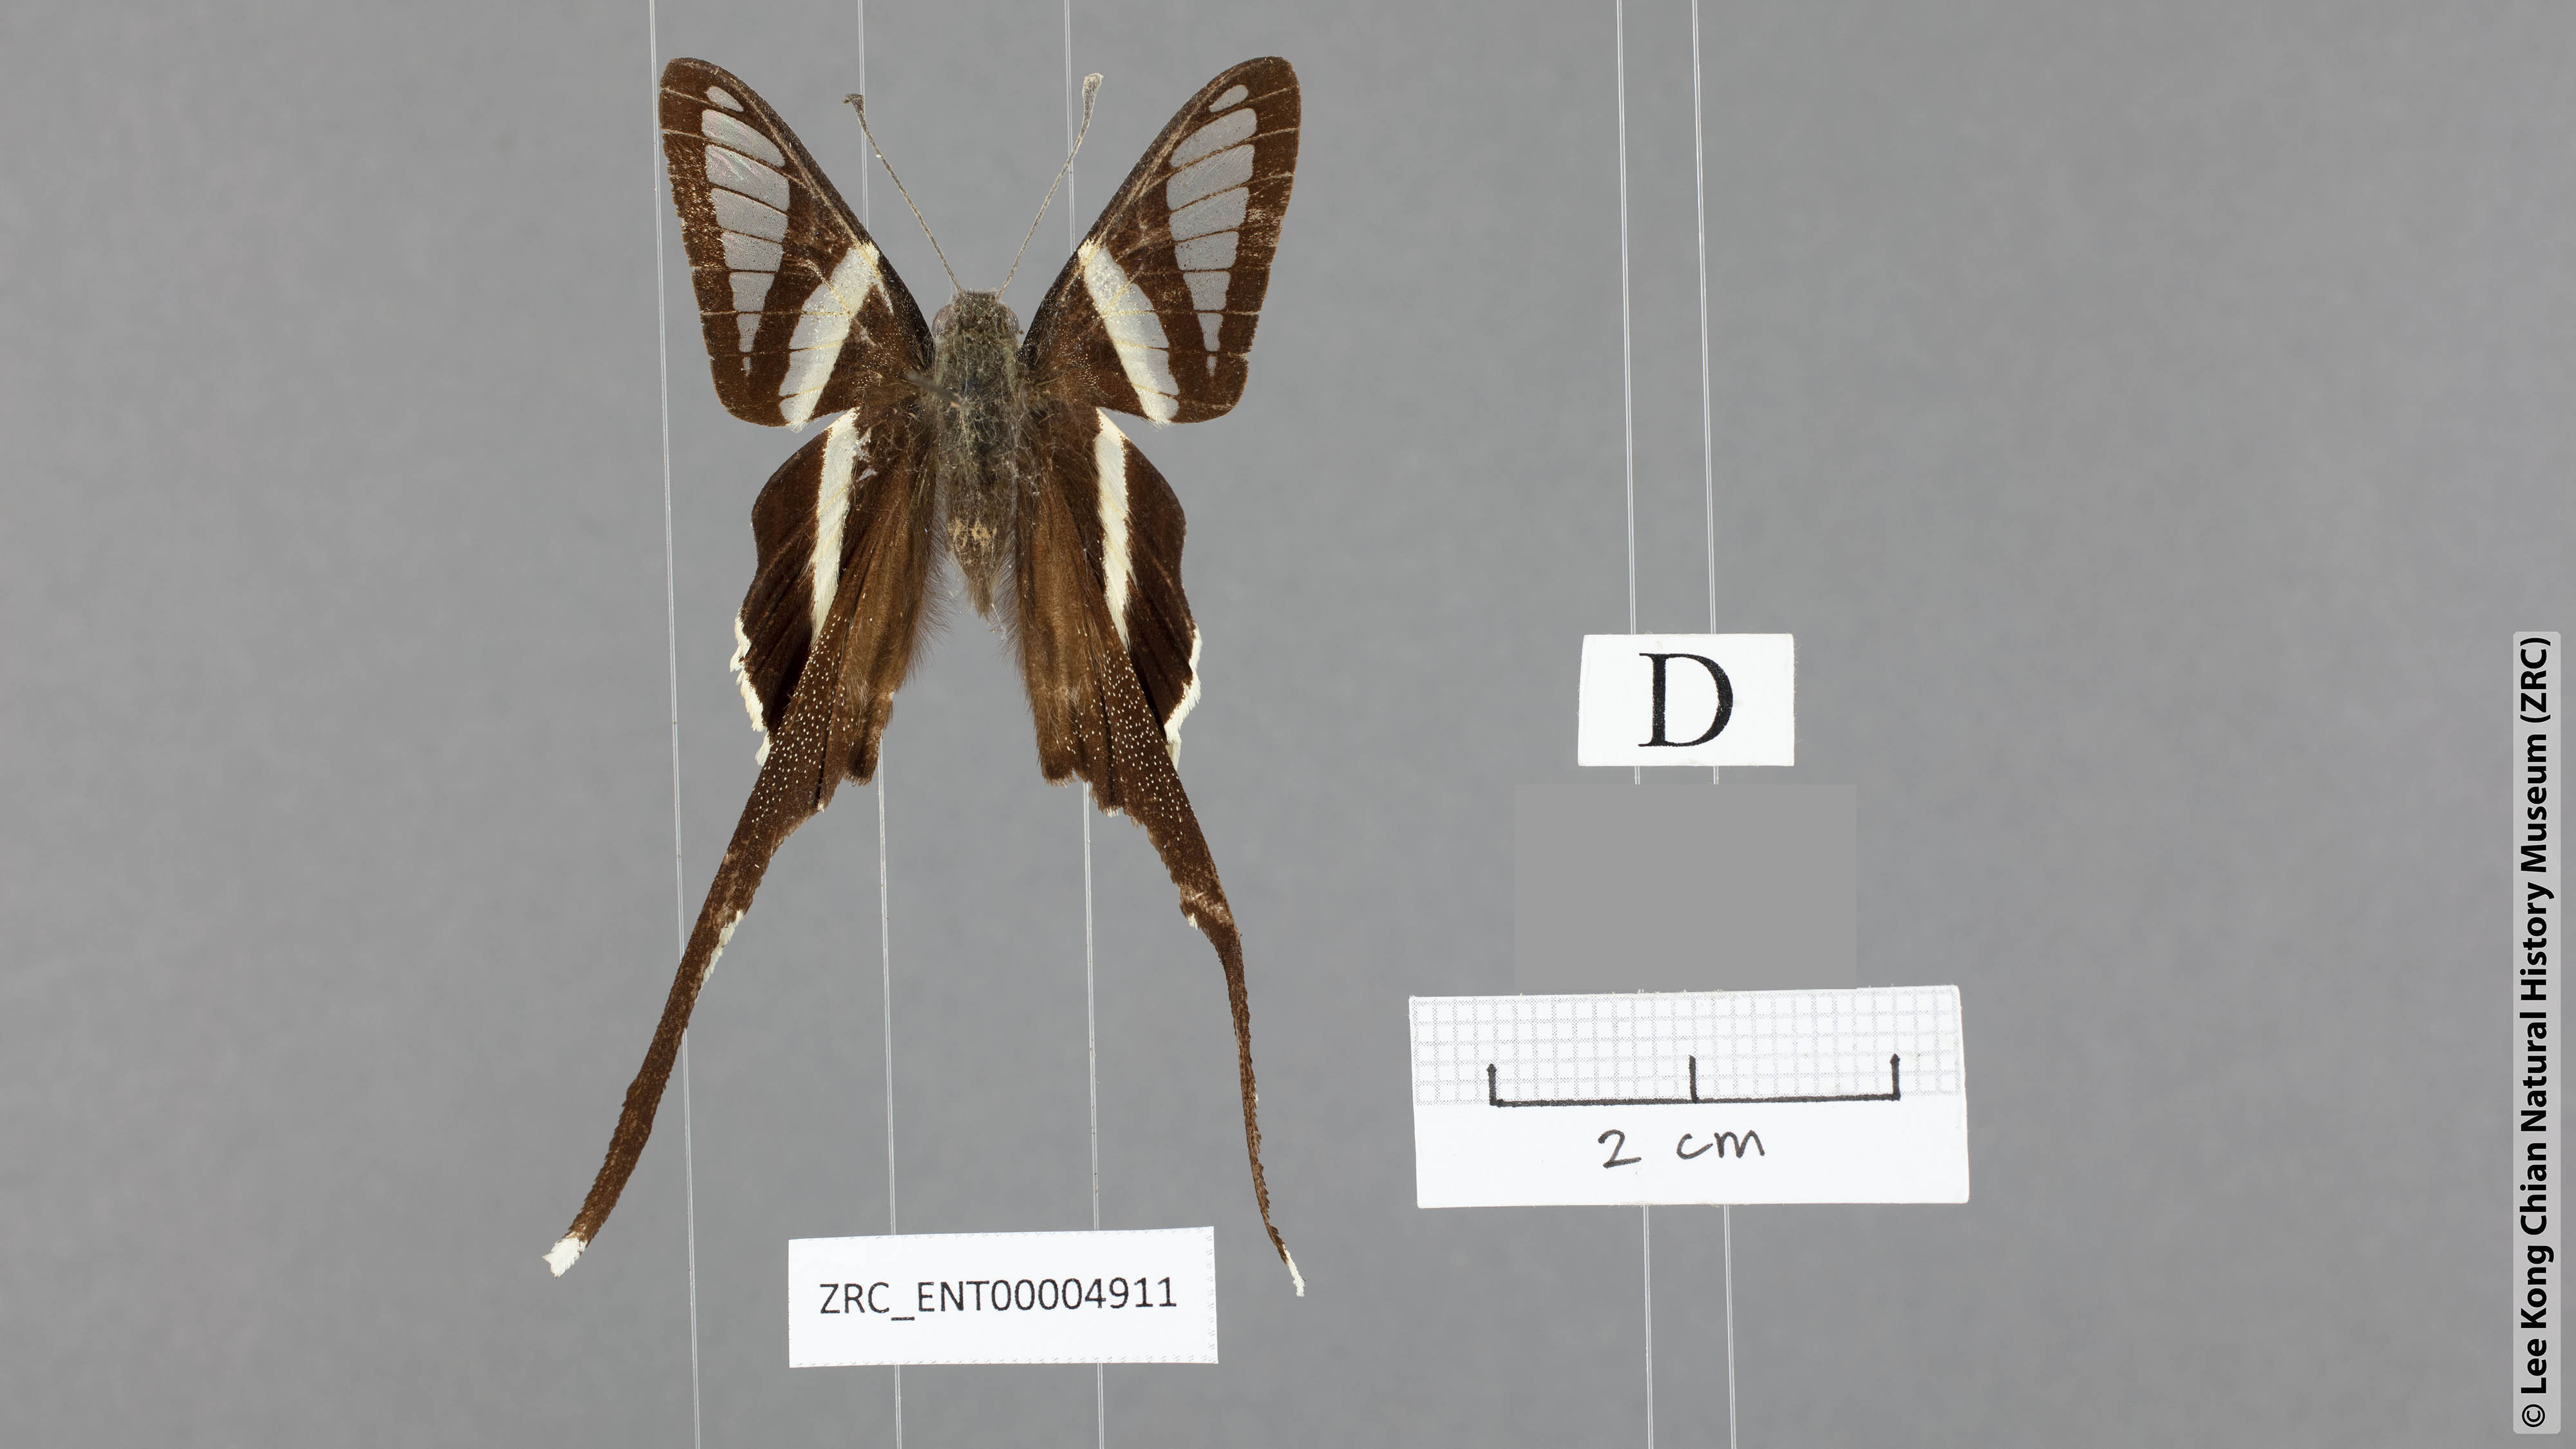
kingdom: Animalia
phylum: Arthropoda
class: Insecta
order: Lepidoptera
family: Papilionidae
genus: Lamproptera
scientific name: Lamproptera curius
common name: White dragontail
